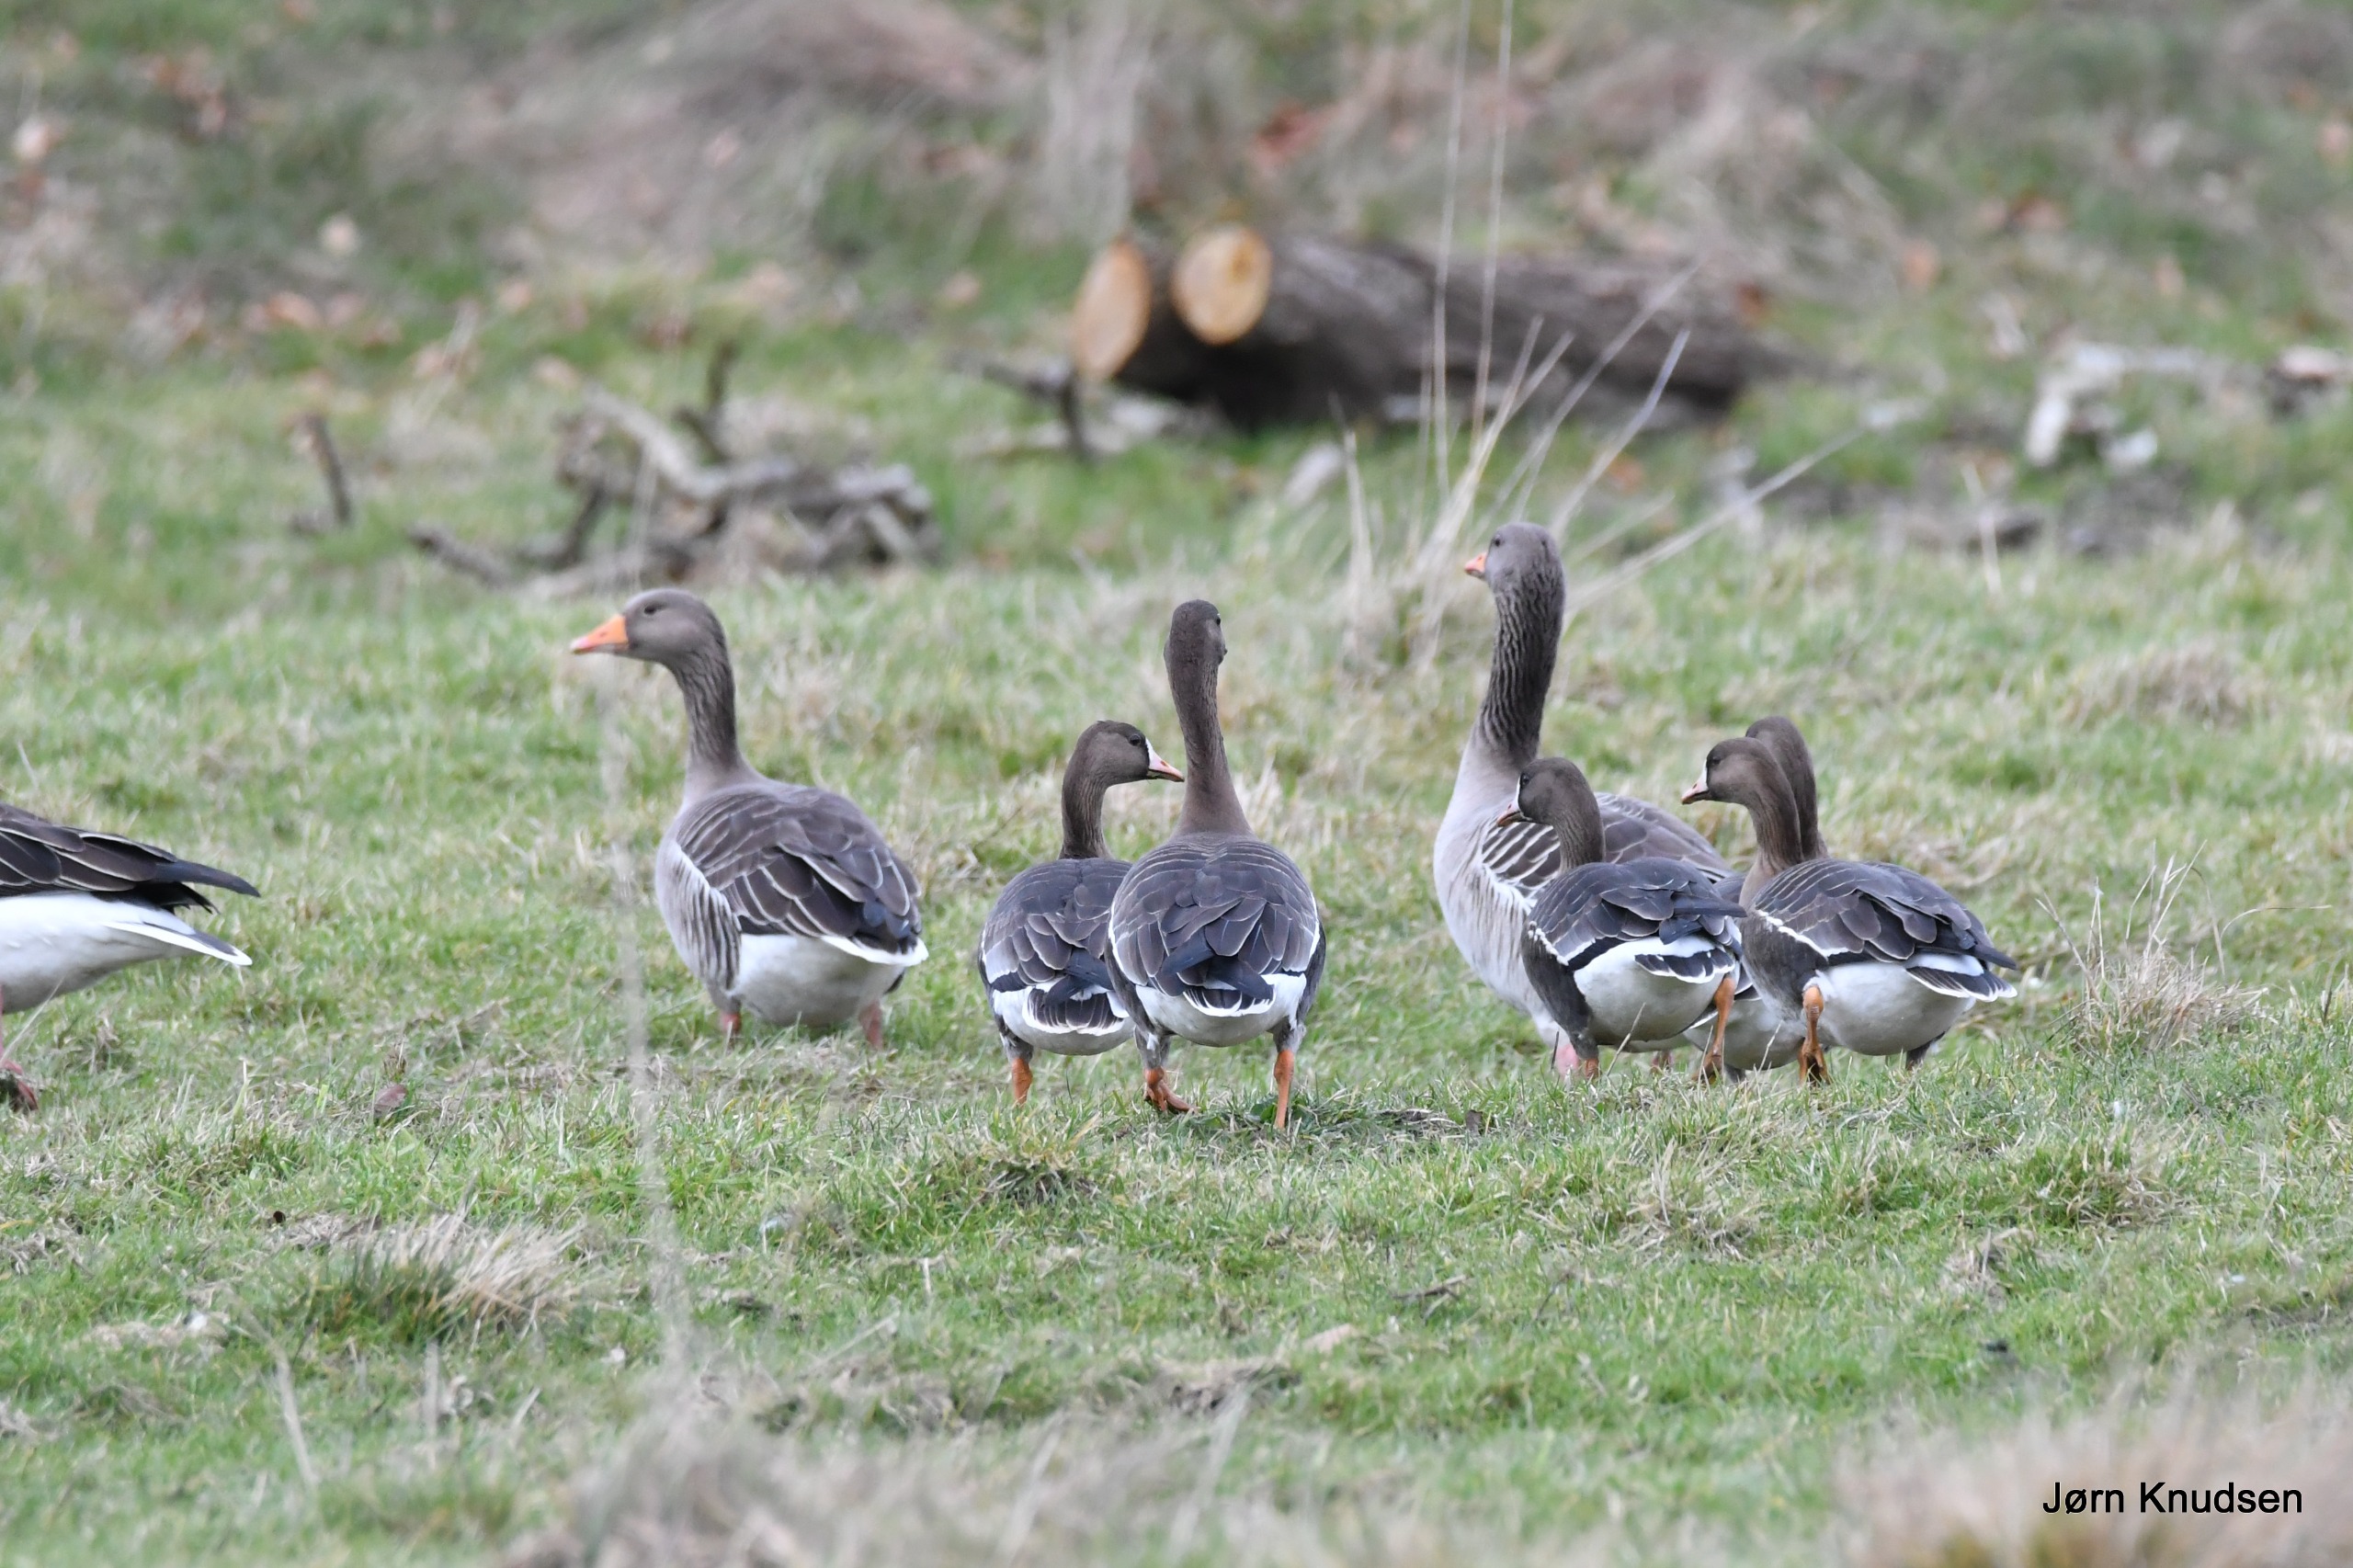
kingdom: Animalia
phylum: Chordata
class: Aves
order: Anseriformes
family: Anatidae
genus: Anser
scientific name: Anser anser
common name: Grågås
